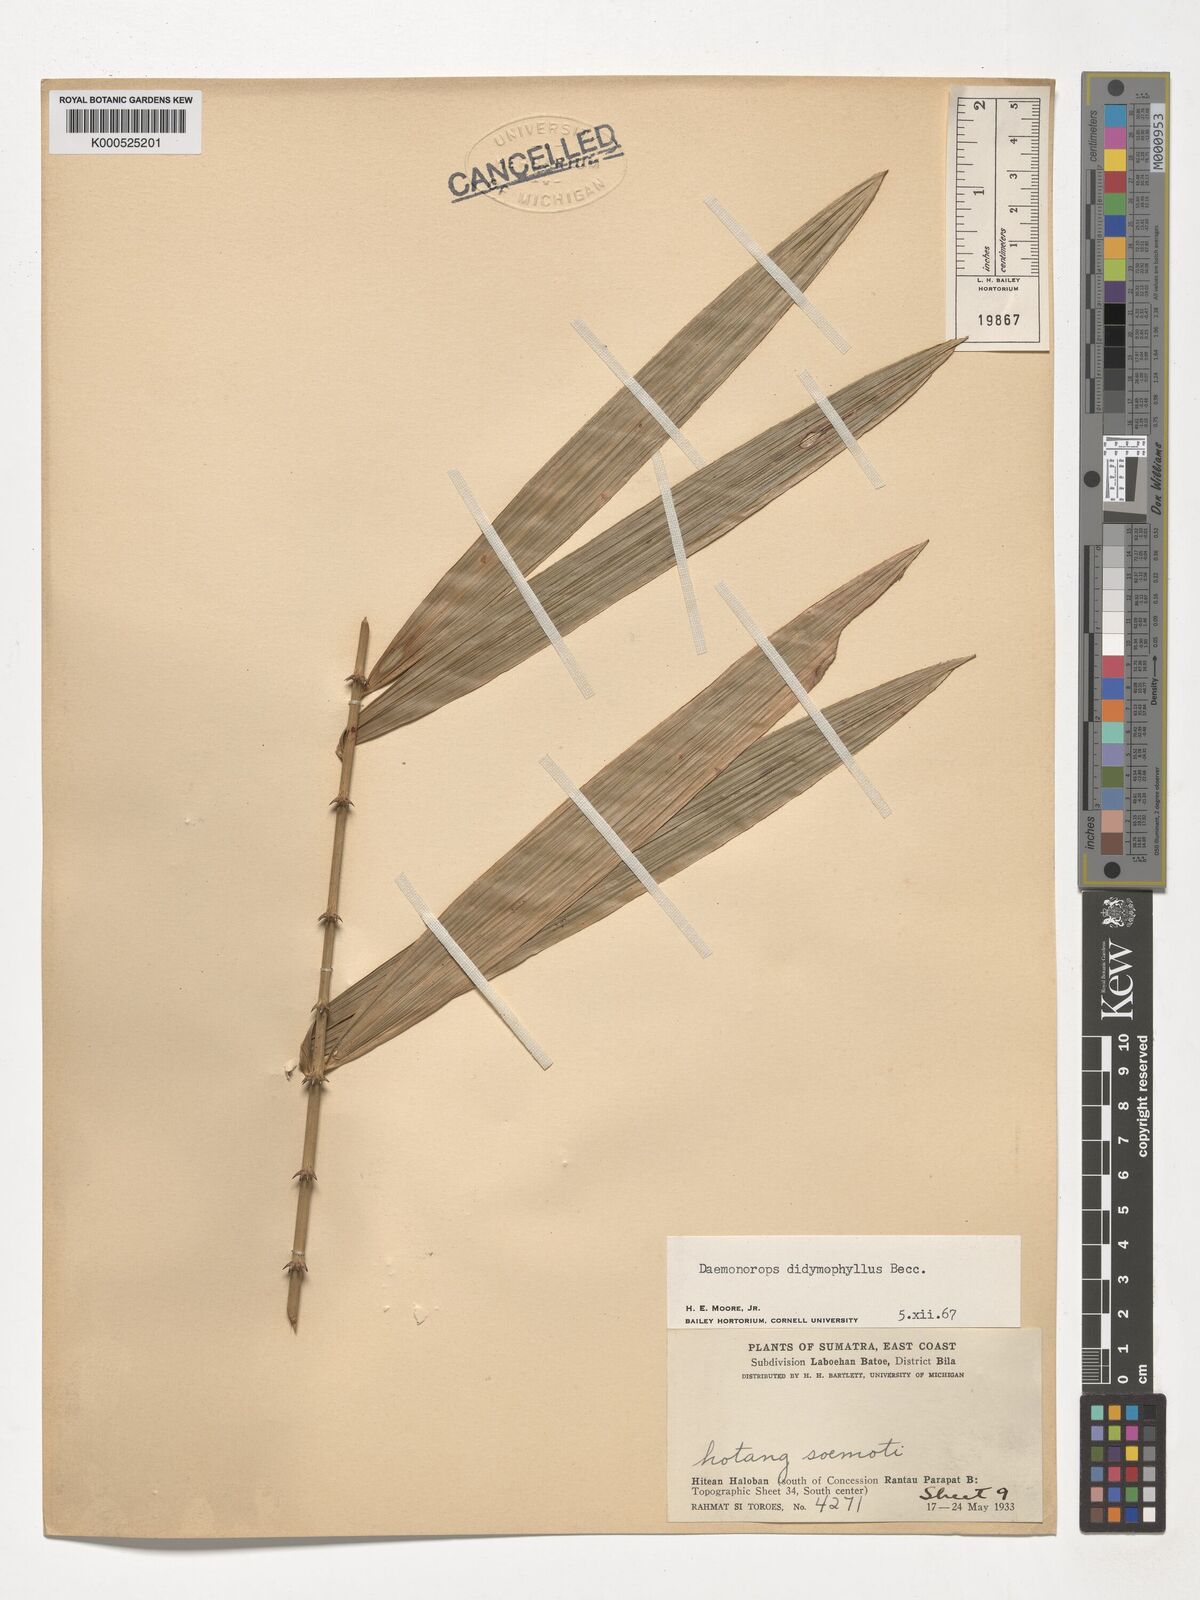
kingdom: Plantae
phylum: Tracheophyta
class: Liliopsida
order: Arecales
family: Arecaceae
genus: Calamus
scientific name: Calamus gracilipes
